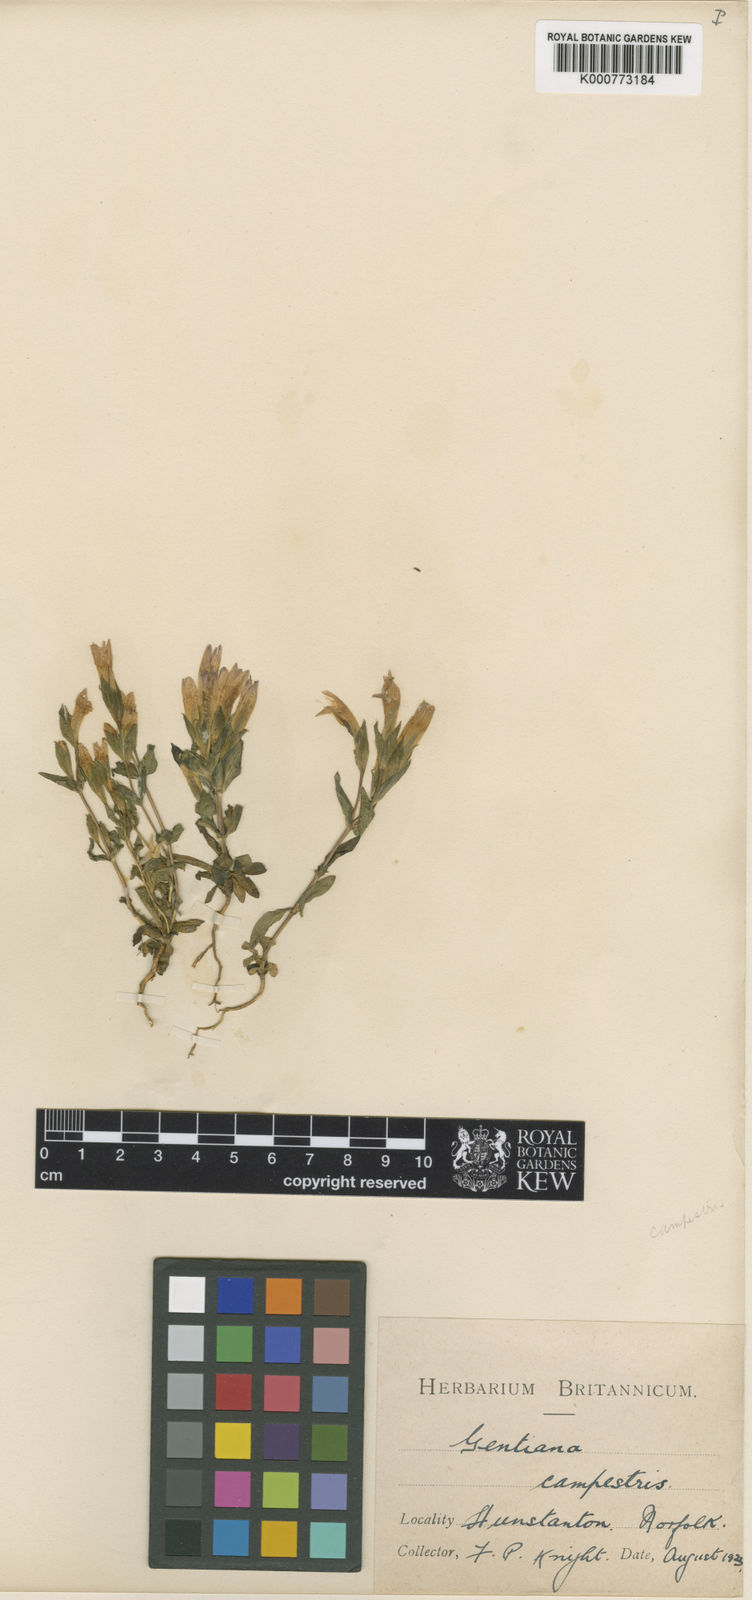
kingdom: Plantae
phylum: Tracheophyta
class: Magnoliopsida
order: Gentianales
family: Gentianaceae
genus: Gentianella
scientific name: Gentianella
